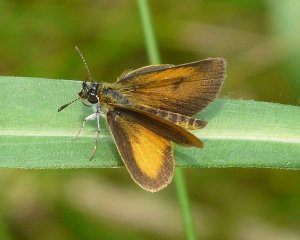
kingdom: Animalia
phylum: Arthropoda
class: Insecta
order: Lepidoptera
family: Hesperiidae
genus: Ancyloxypha
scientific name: Ancyloxypha numitor
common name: Least Skipper
